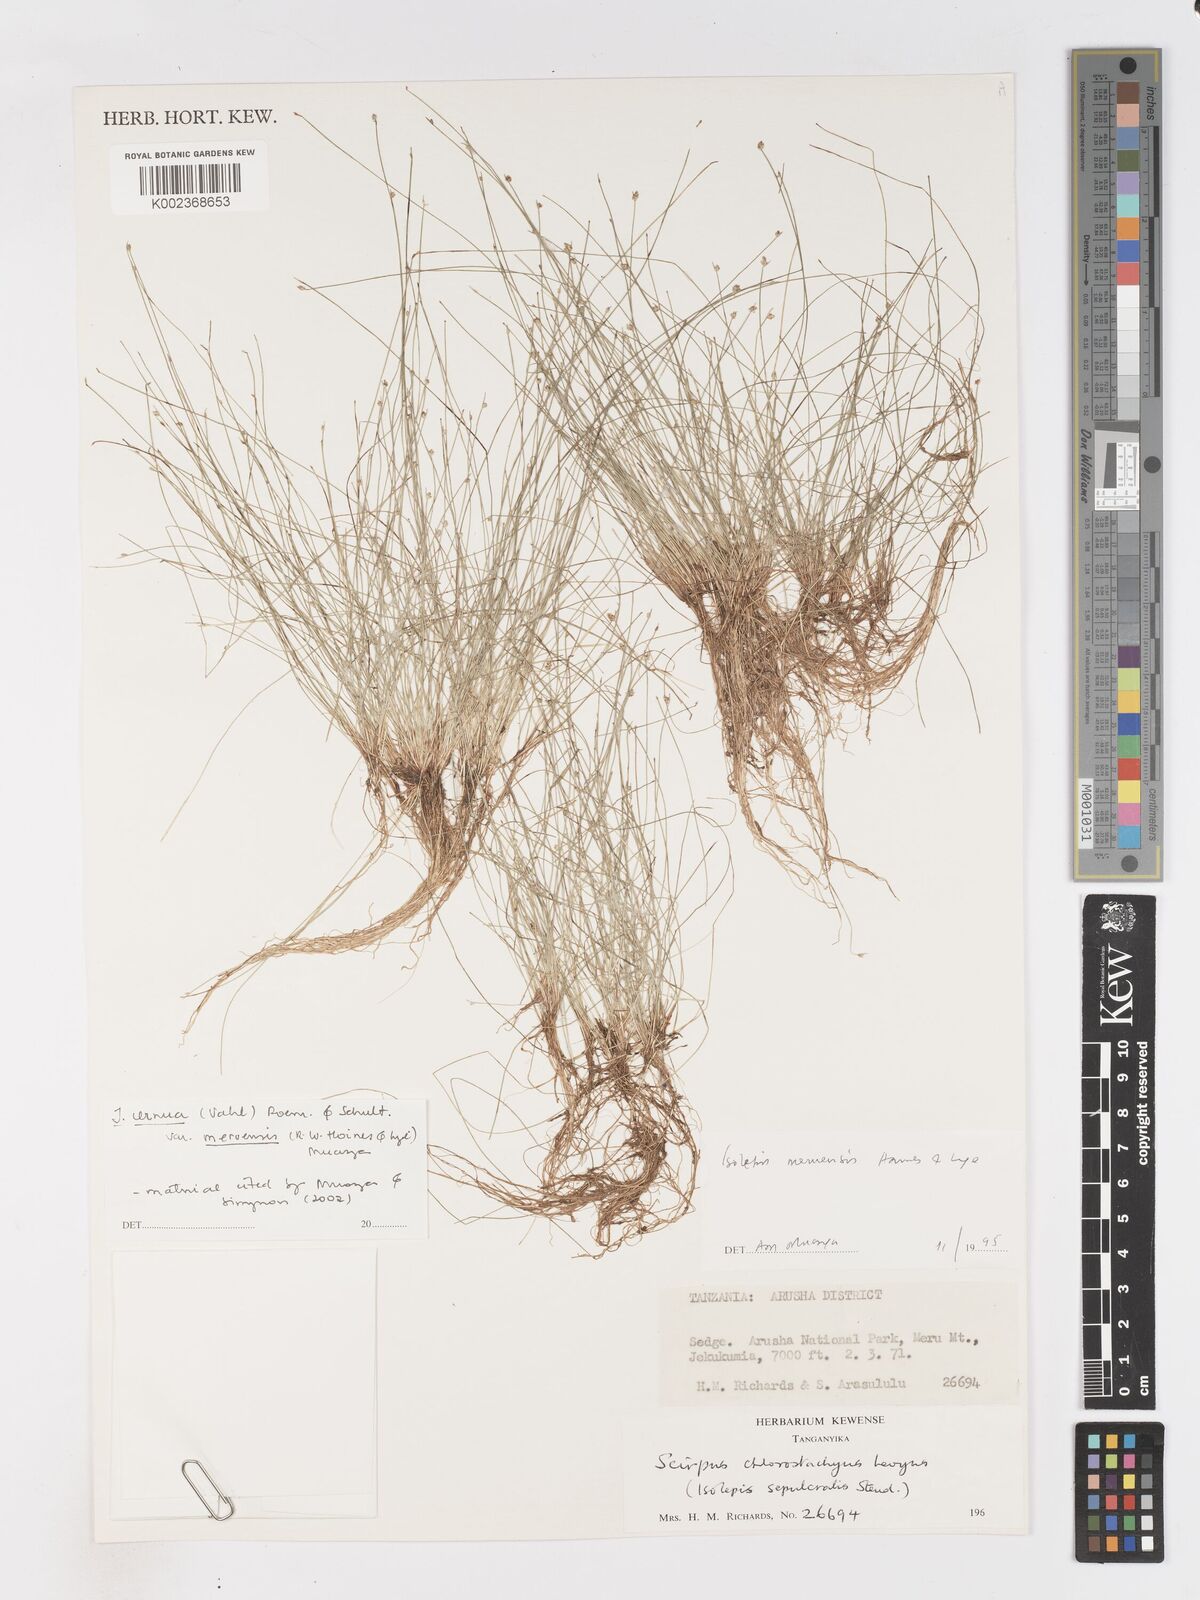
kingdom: Plantae
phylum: Tracheophyta
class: Liliopsida
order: Poales
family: Cyperaceae
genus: Isolepis
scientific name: Isolepis cernua
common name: Slender club-rush
